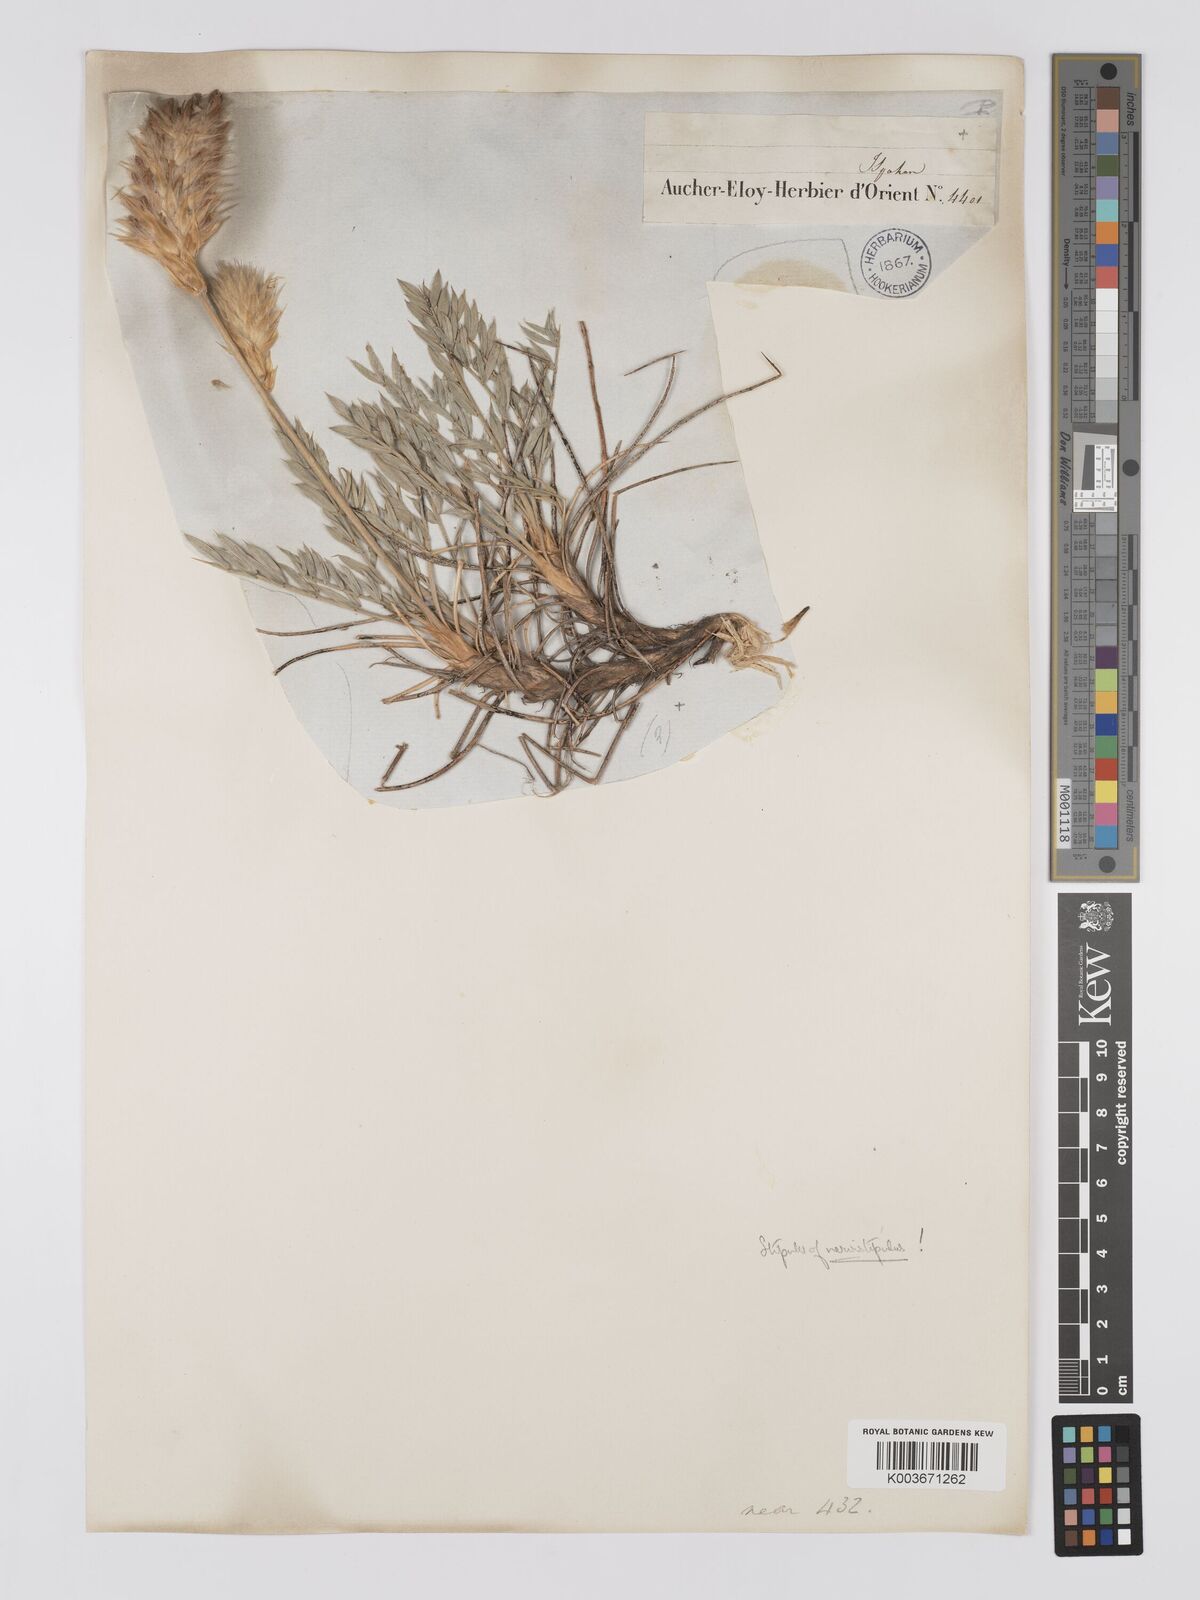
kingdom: Plantae
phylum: Tracheophyta
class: Magnoliopsida
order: Fabales
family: Fabaceae
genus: Astragalus
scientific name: Astragalus chrysostachys
